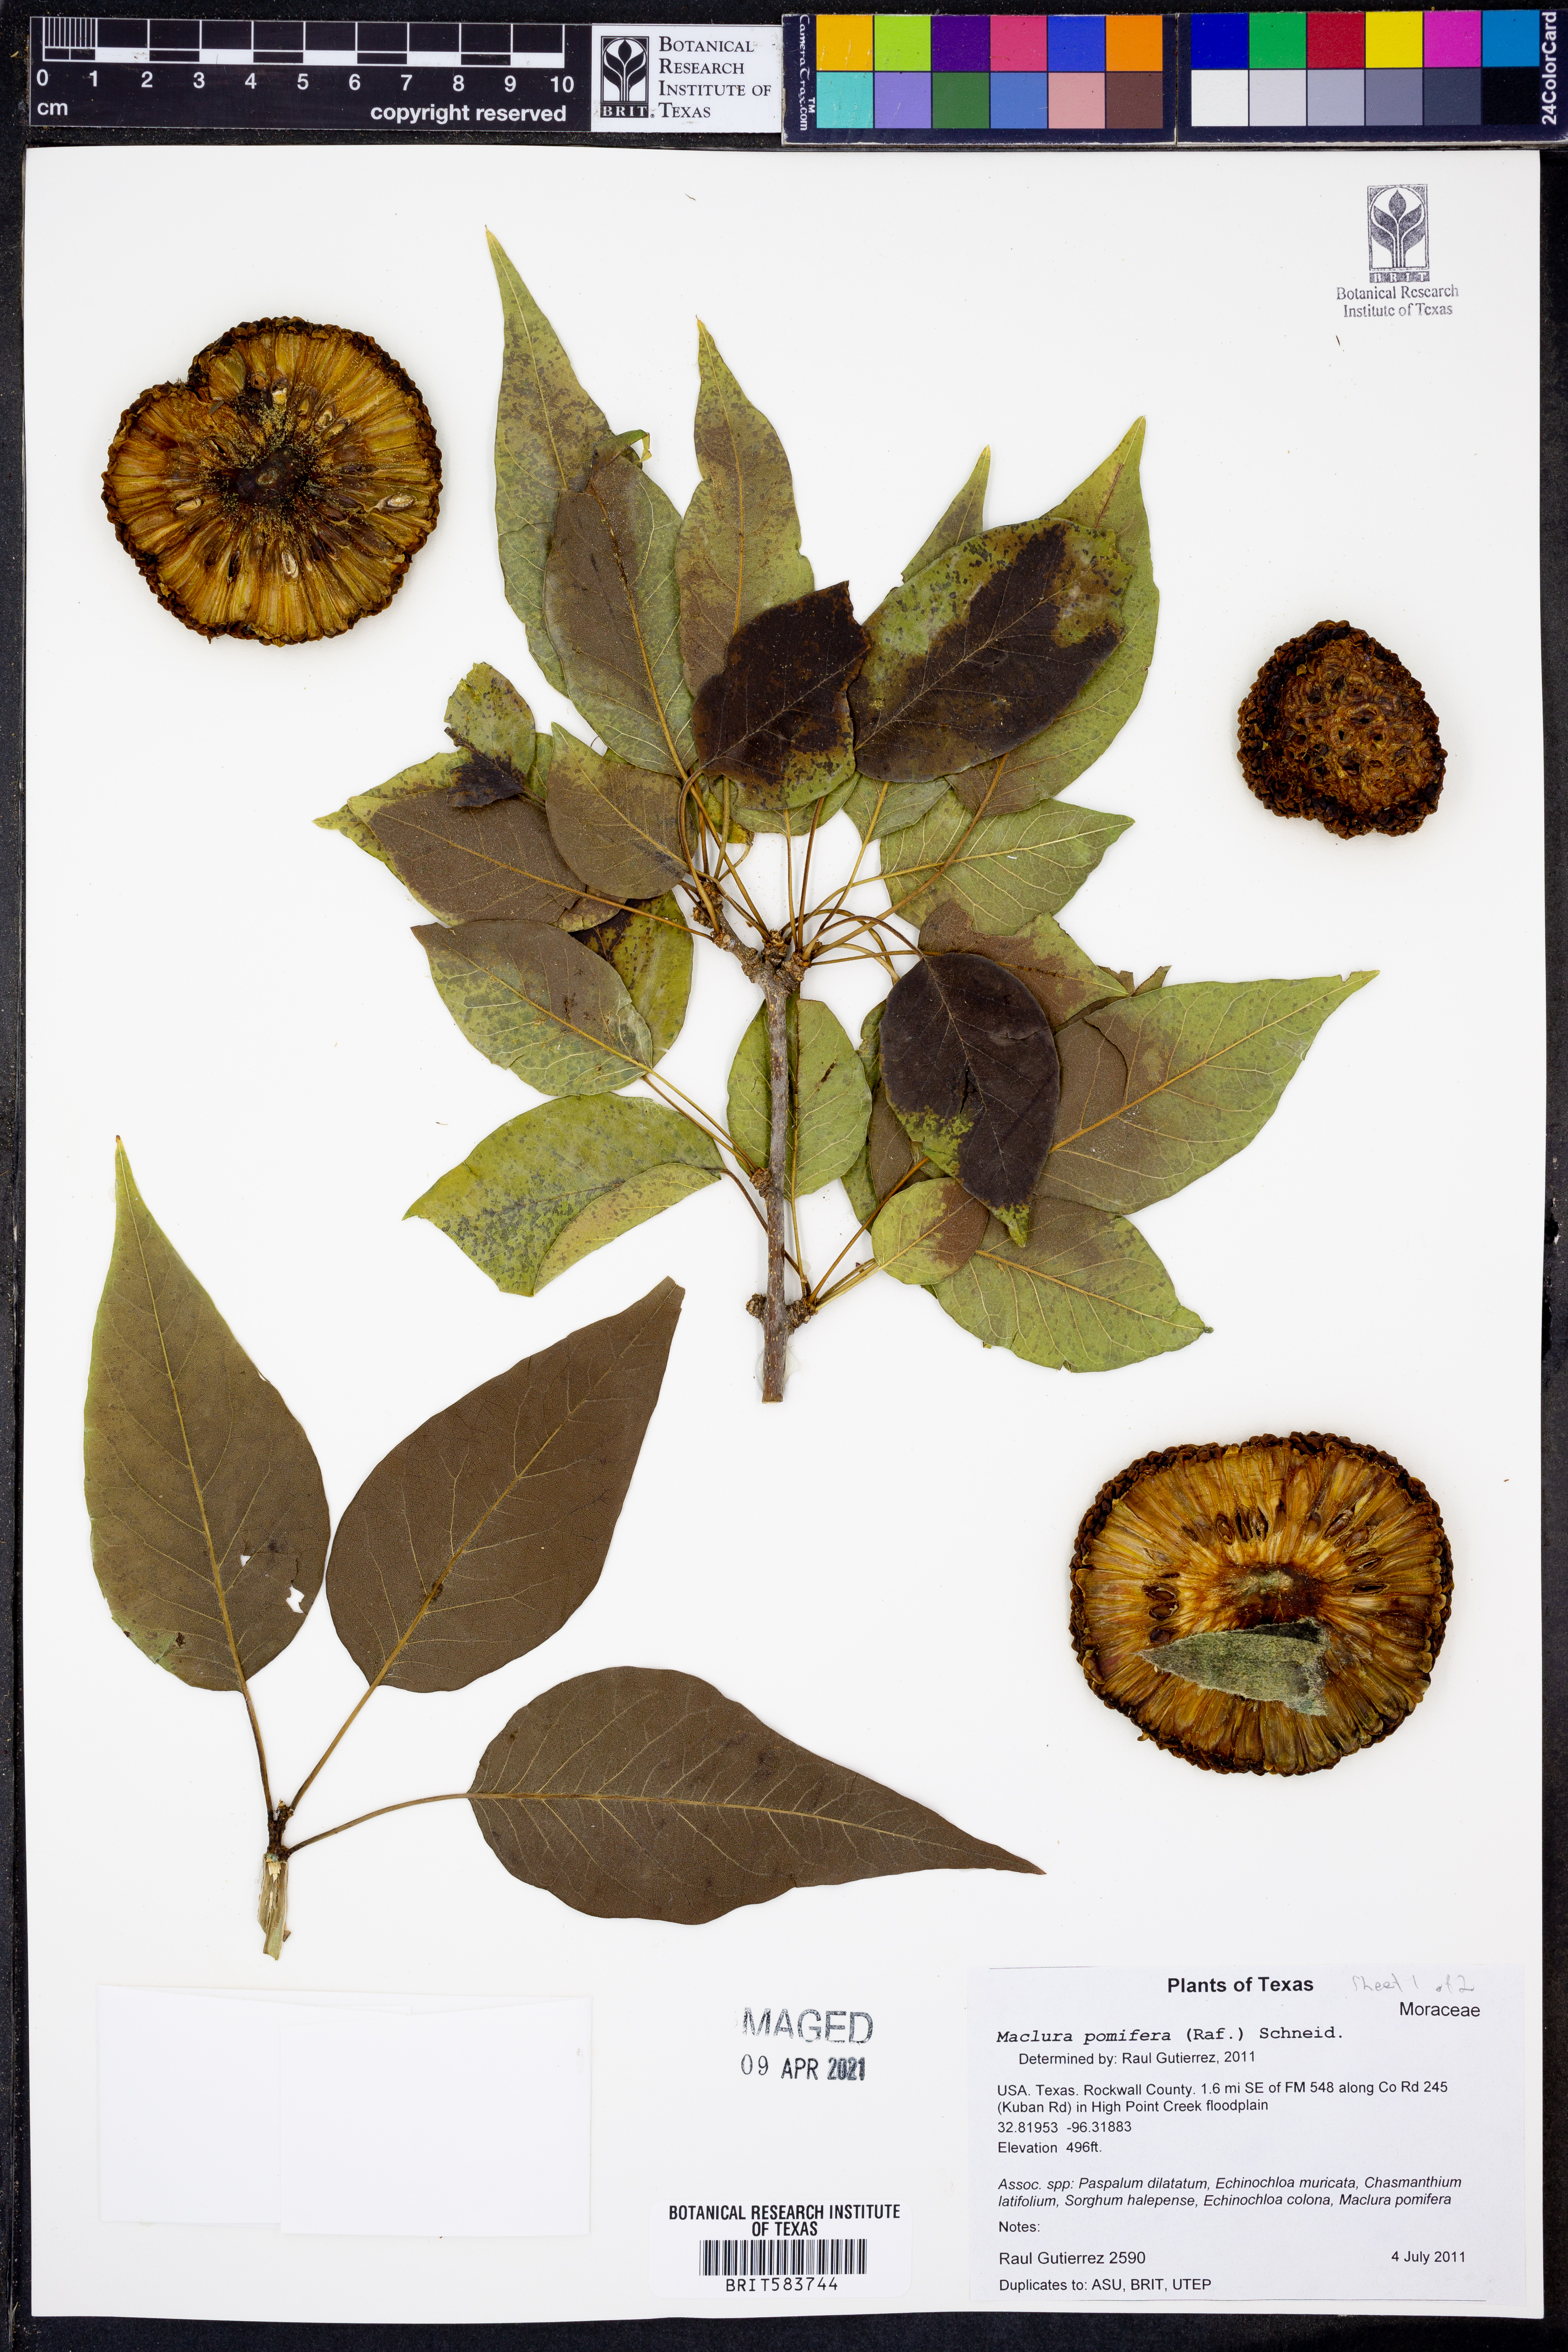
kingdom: Plantae
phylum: Tracheophyta
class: Magnoliopsida
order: Rosales
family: Moraceae
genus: Maclura
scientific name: Maclura pomifera
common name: Osage-orange
